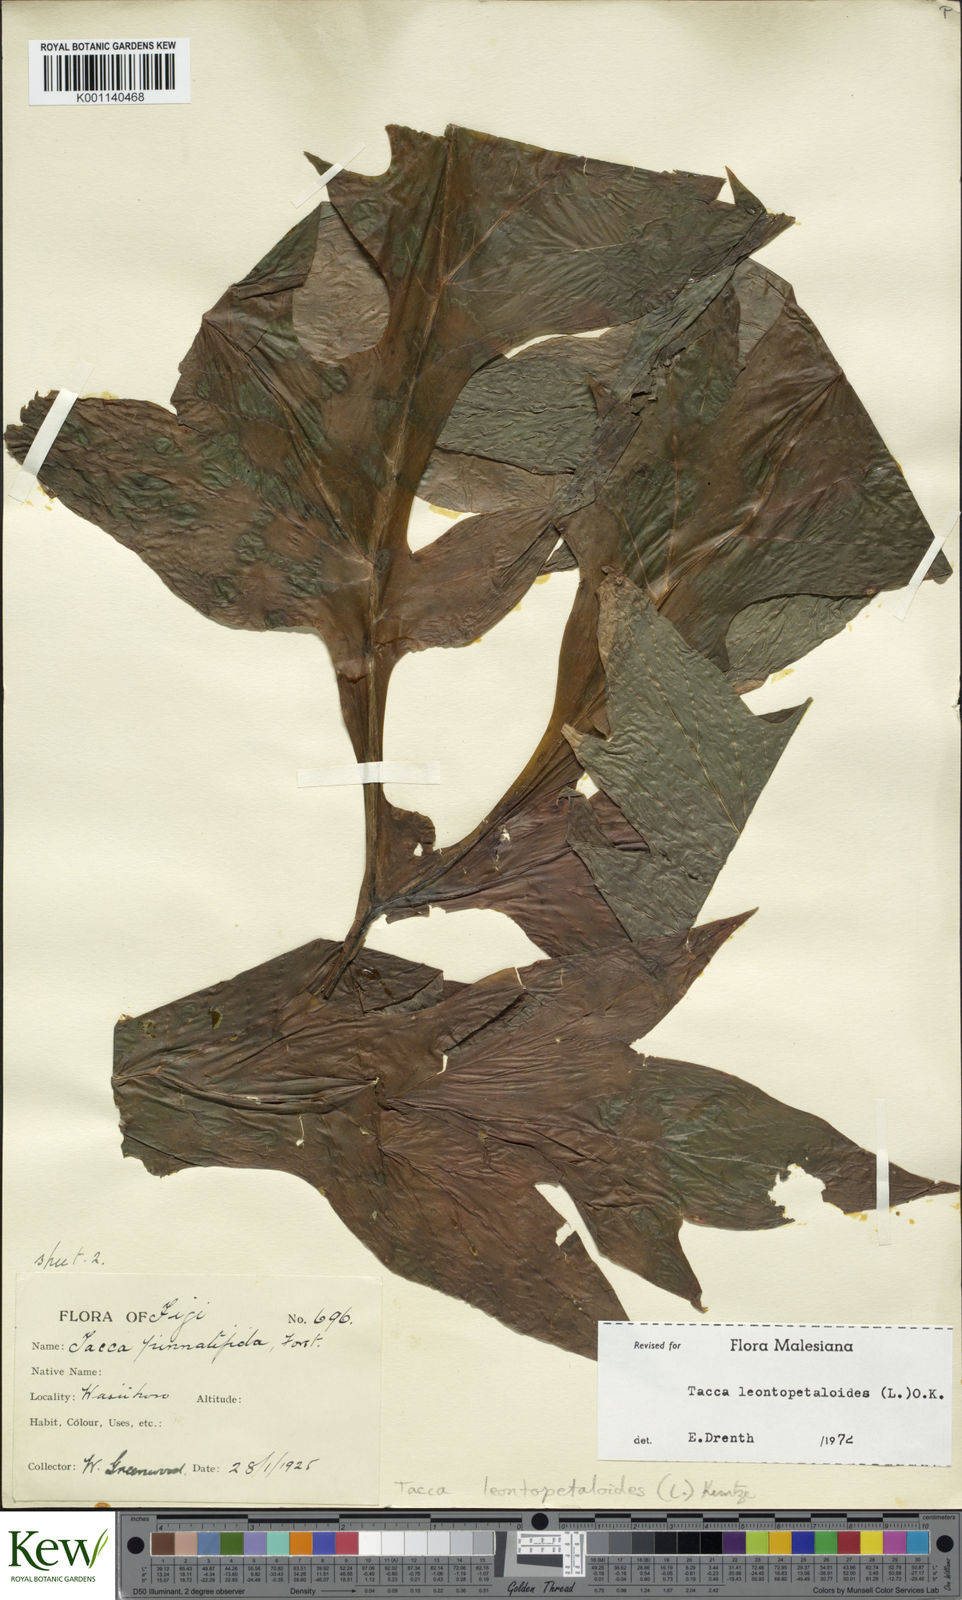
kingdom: Plantae
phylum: Tracheophyta
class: Liliopsida
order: Dioscoreales
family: Dioscoreaceae
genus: Tacca
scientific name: Tacca leontopetaloides
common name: Arrowroot
